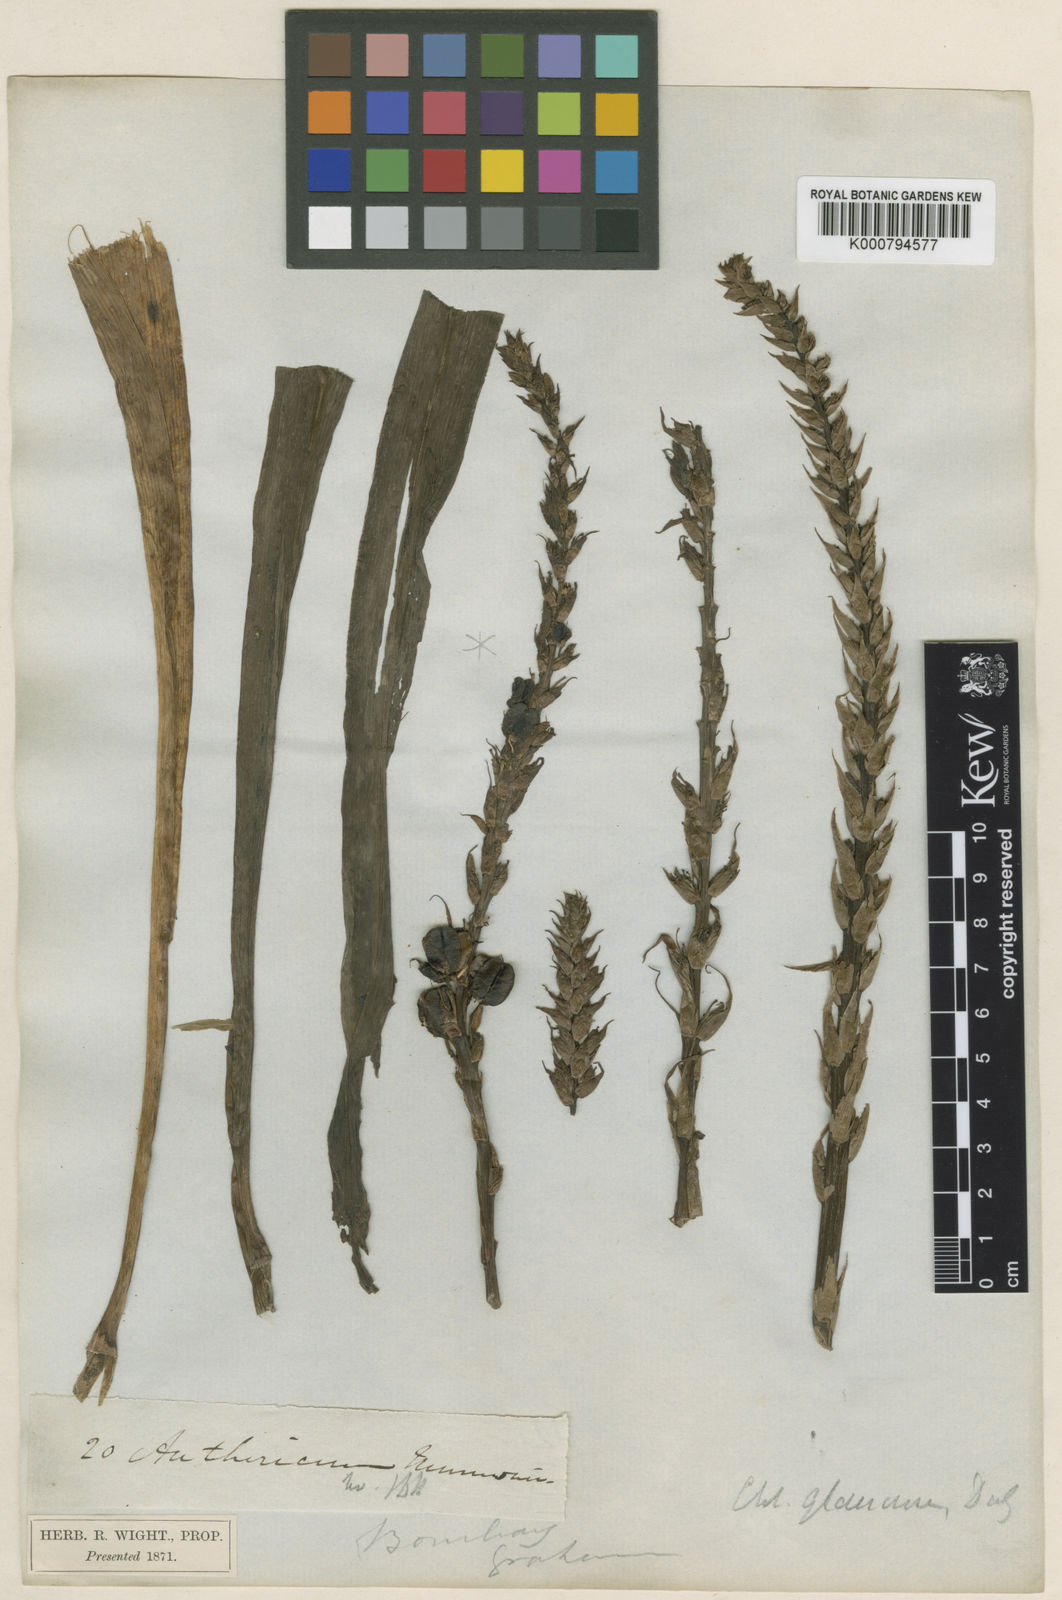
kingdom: Plantae
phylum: Tracheophyta
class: Liliopsida
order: Asparagales
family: Asparagaceae
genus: Chlorophytum
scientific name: Chlorophytum glaucum
